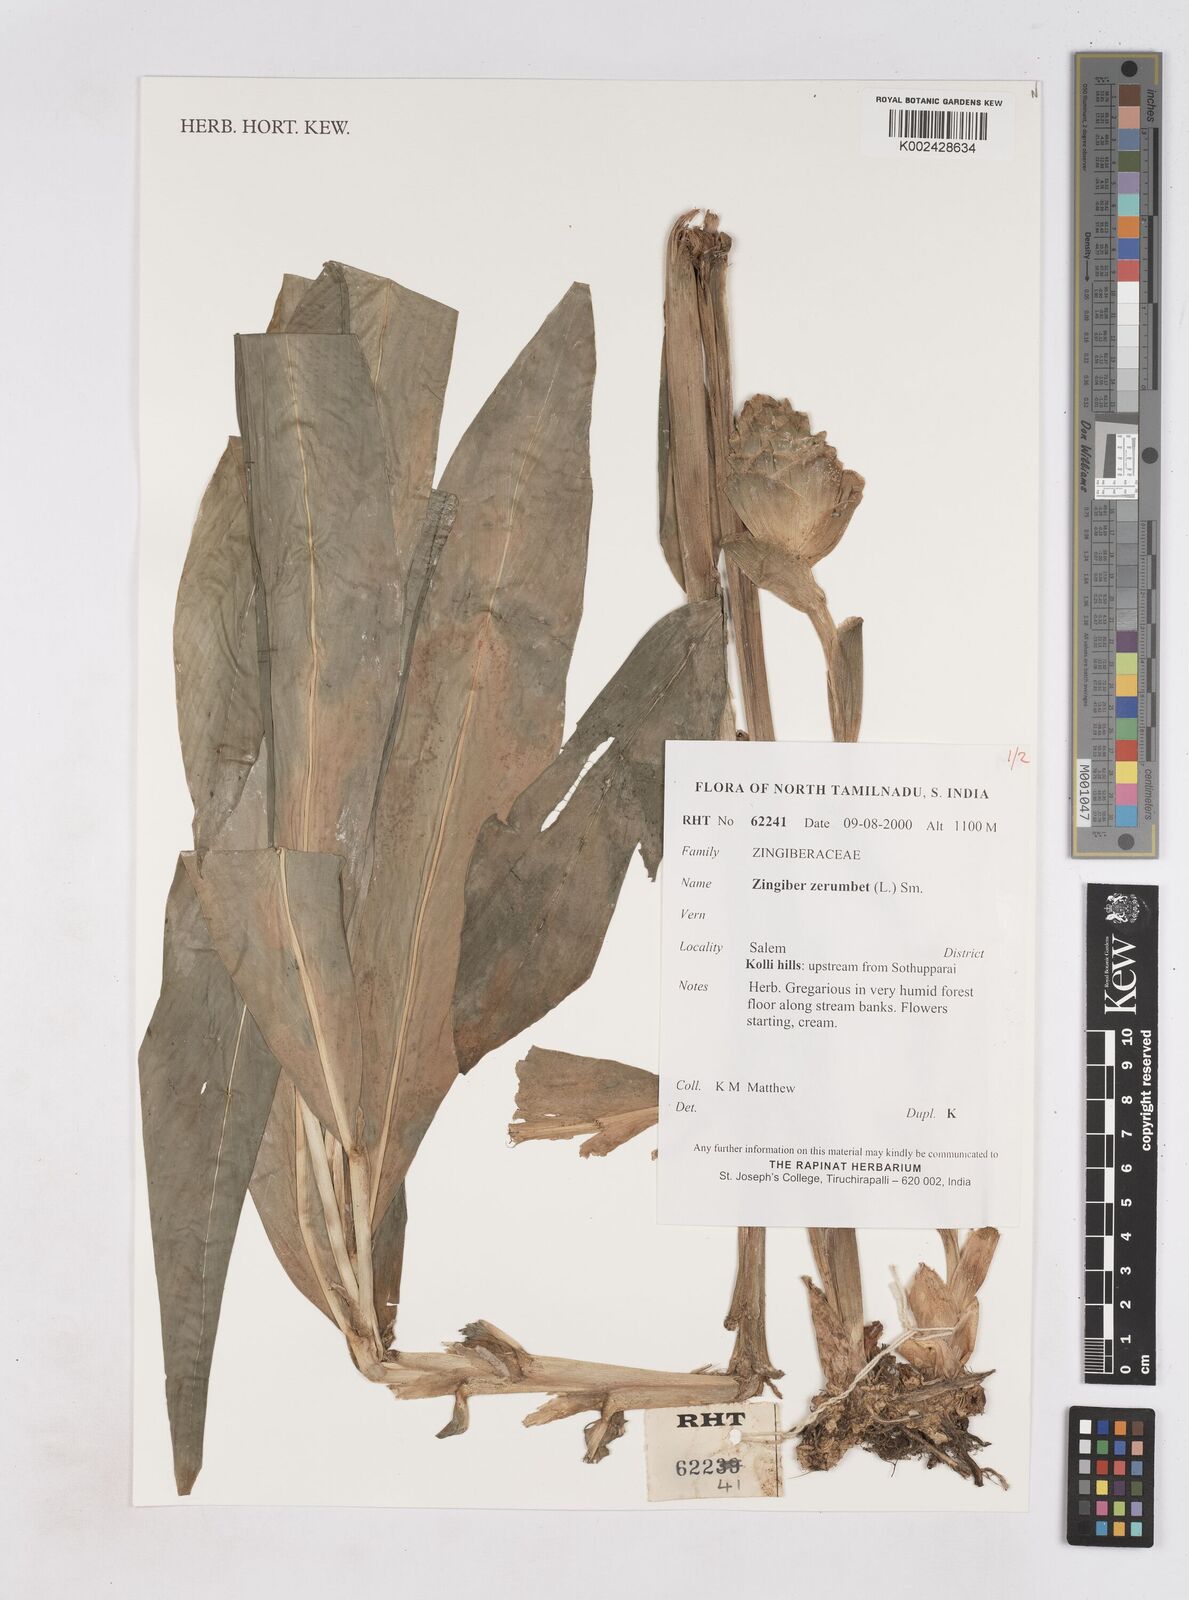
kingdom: Plantae
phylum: Tracheophyta
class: Liliopsida
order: Zingiberales
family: Zingiberaceae
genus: Zingiber
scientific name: Zingiber zerumbet
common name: Bitter ginger
